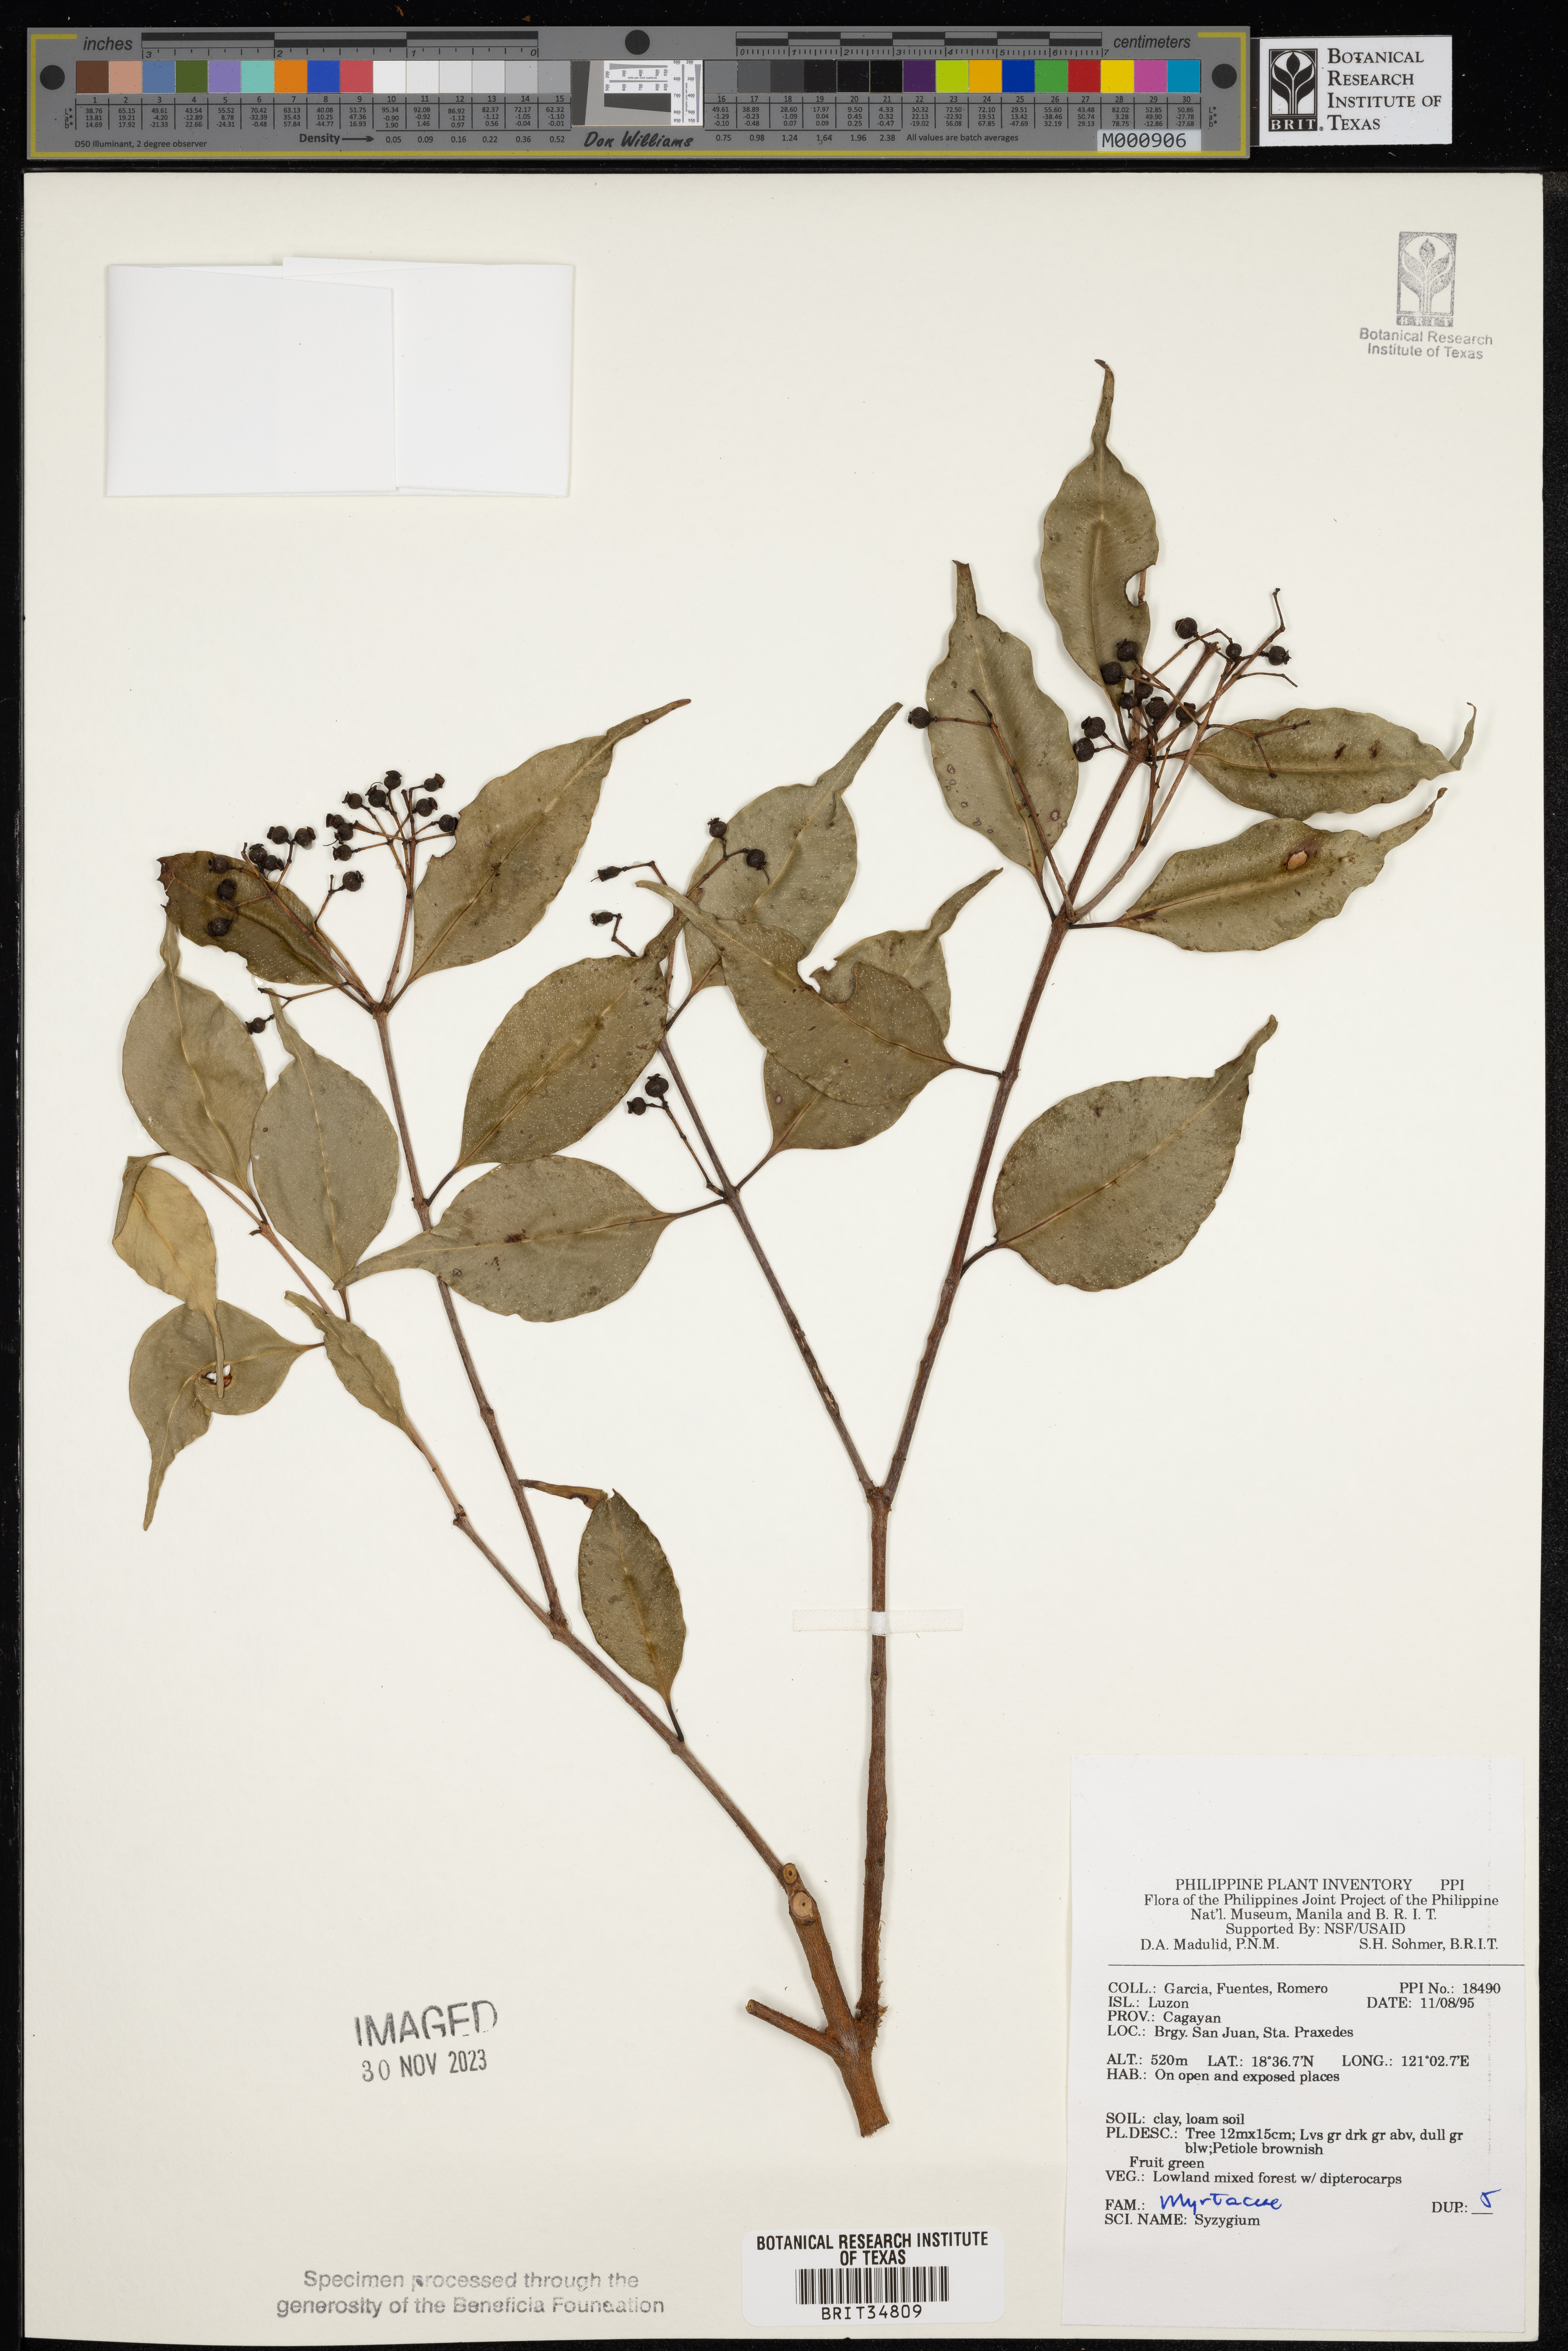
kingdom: Plantae
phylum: Tracheophyta
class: Magnoliopsida
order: Myrtales
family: Myrtaceae
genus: Syzygium
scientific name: Syzygium
